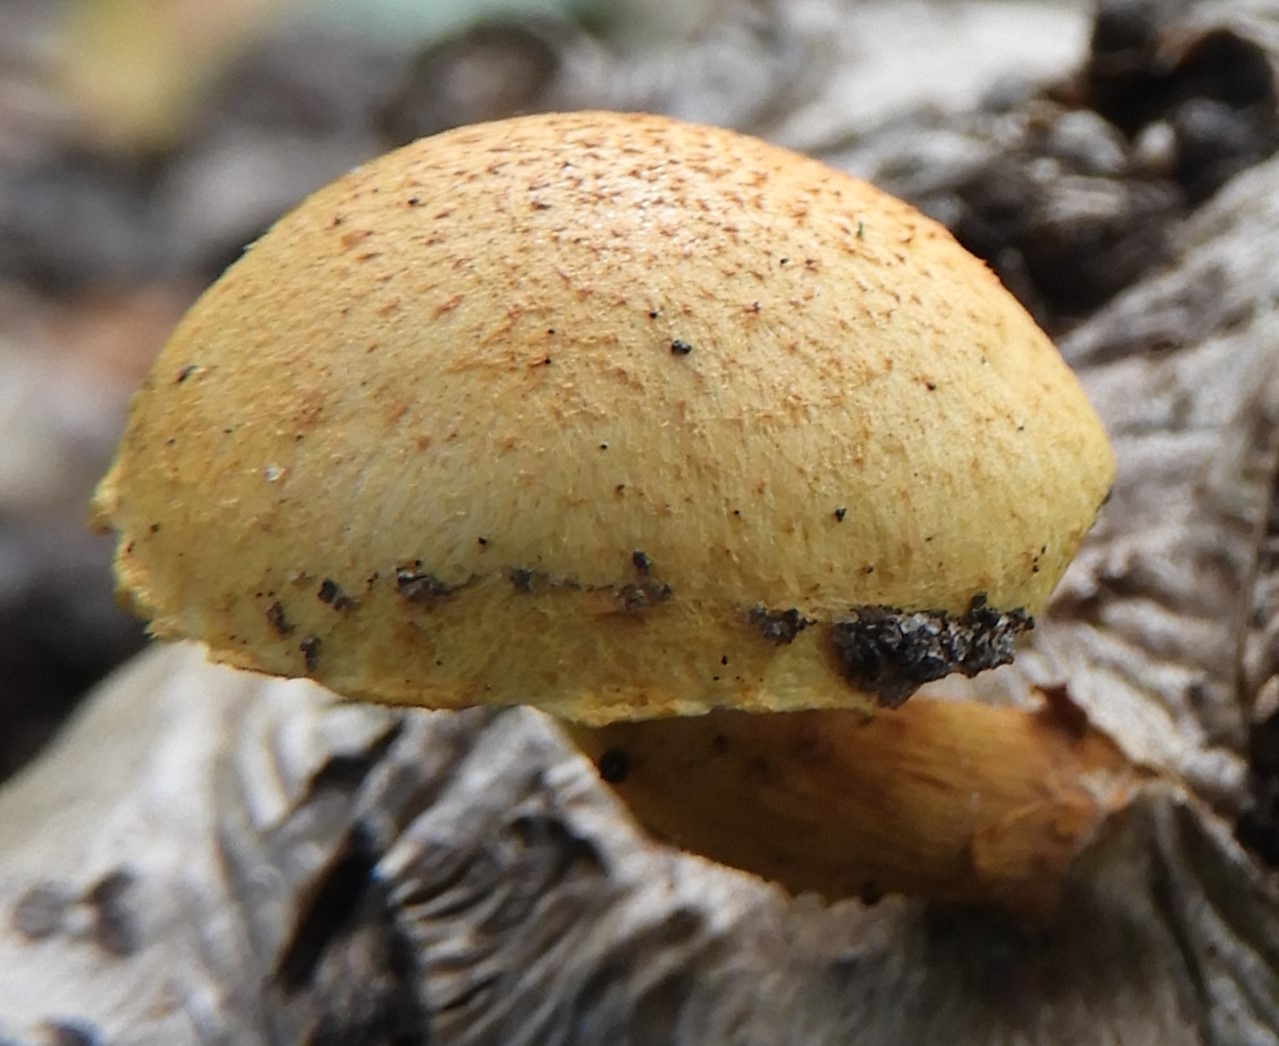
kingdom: Fungi
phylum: Basidiomycota
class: Agaricomycetes
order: Agaricales
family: Strophariaceae
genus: Pholiota
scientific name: Pholiota tuberculosa
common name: finskællet skælhat
